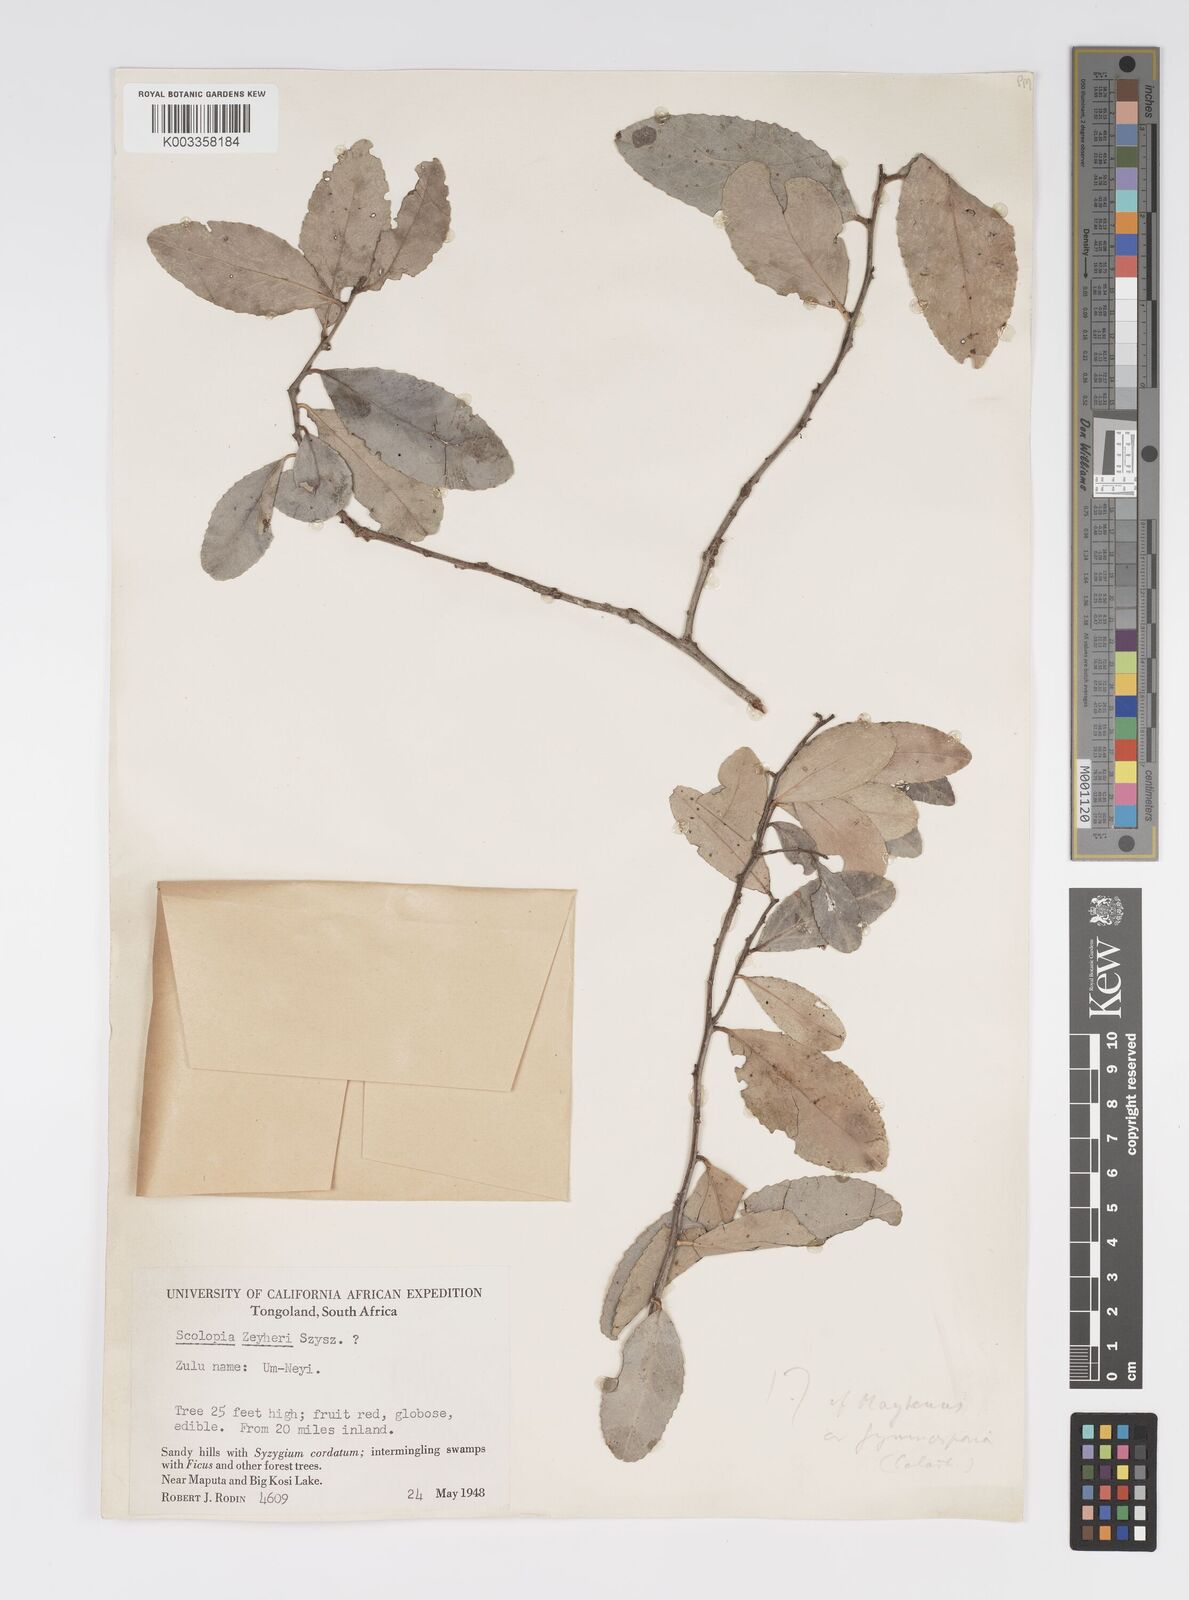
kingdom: Plantae
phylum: Tracheophyta
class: Magnoliopsida
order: Malpighiales
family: Salicaceae
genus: Scolopia
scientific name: Scolopia zeyheri
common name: Thorn pear
